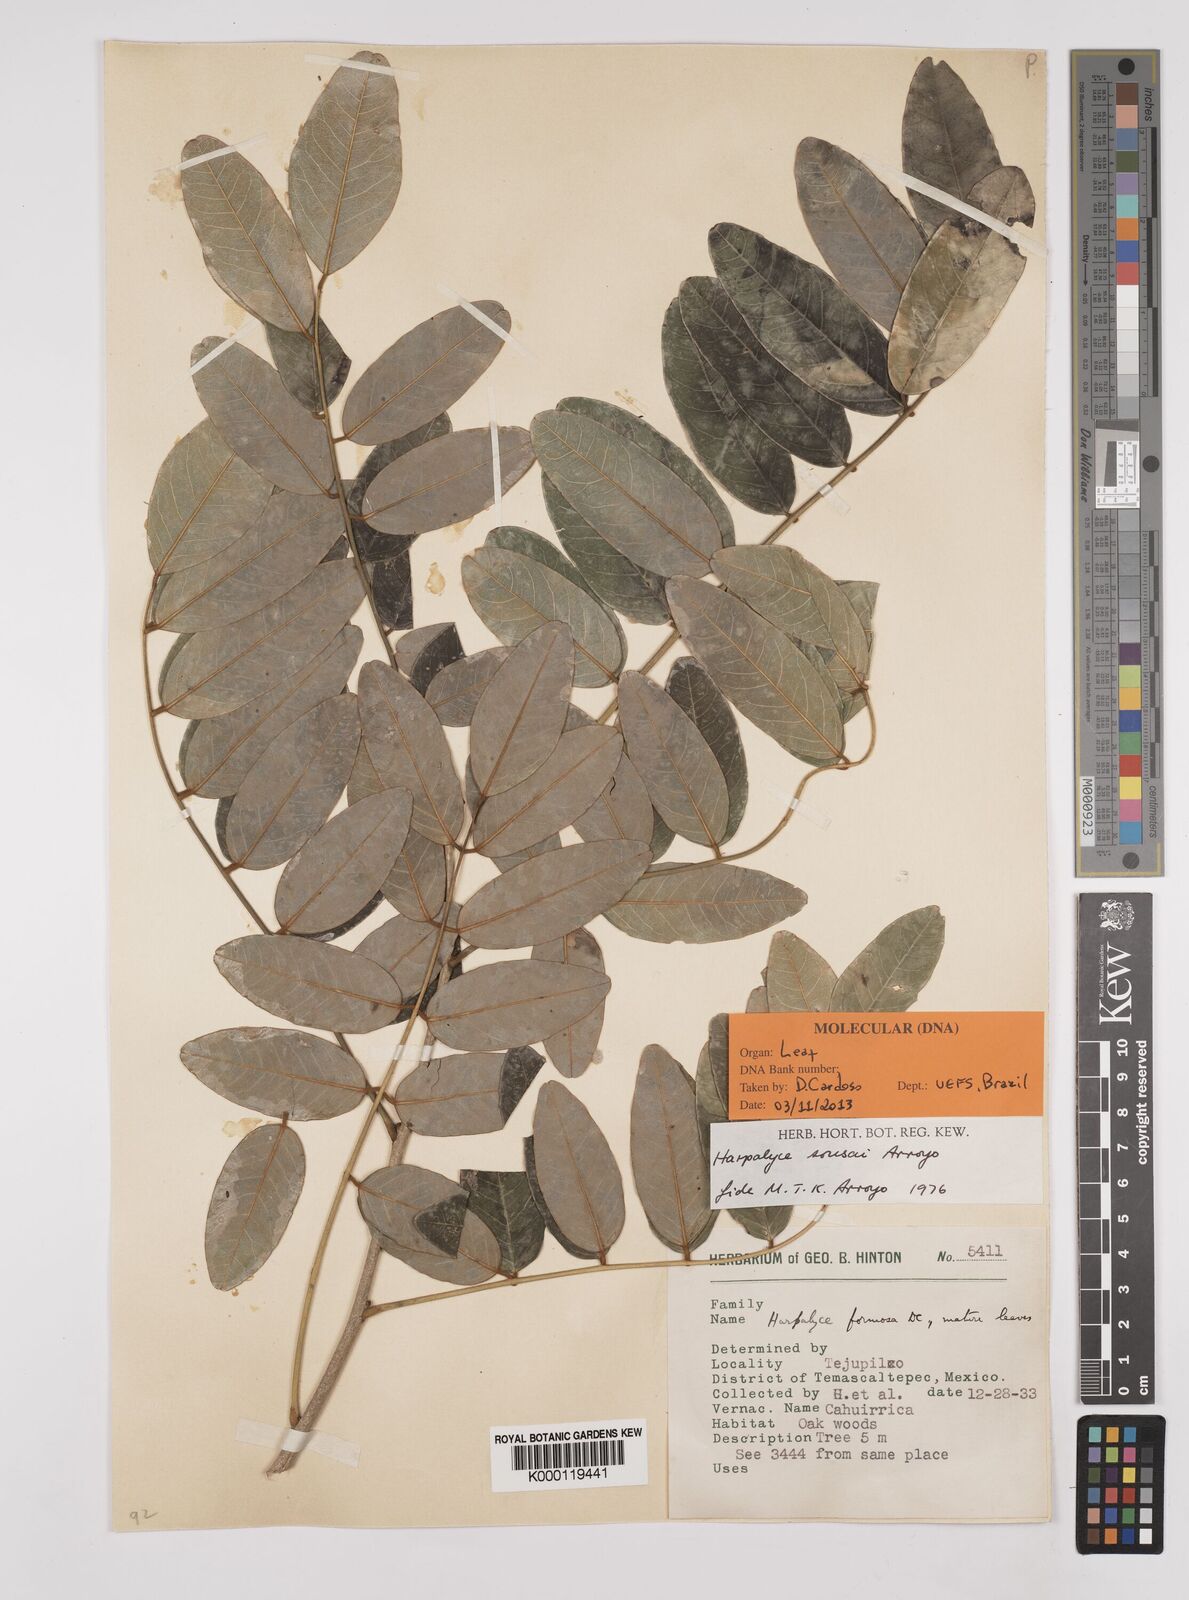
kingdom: Plantae
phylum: Tracheophyta
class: Magnoliopsida
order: Fabales
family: Fabaceae
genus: Harpalyce
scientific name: Harpalyce
